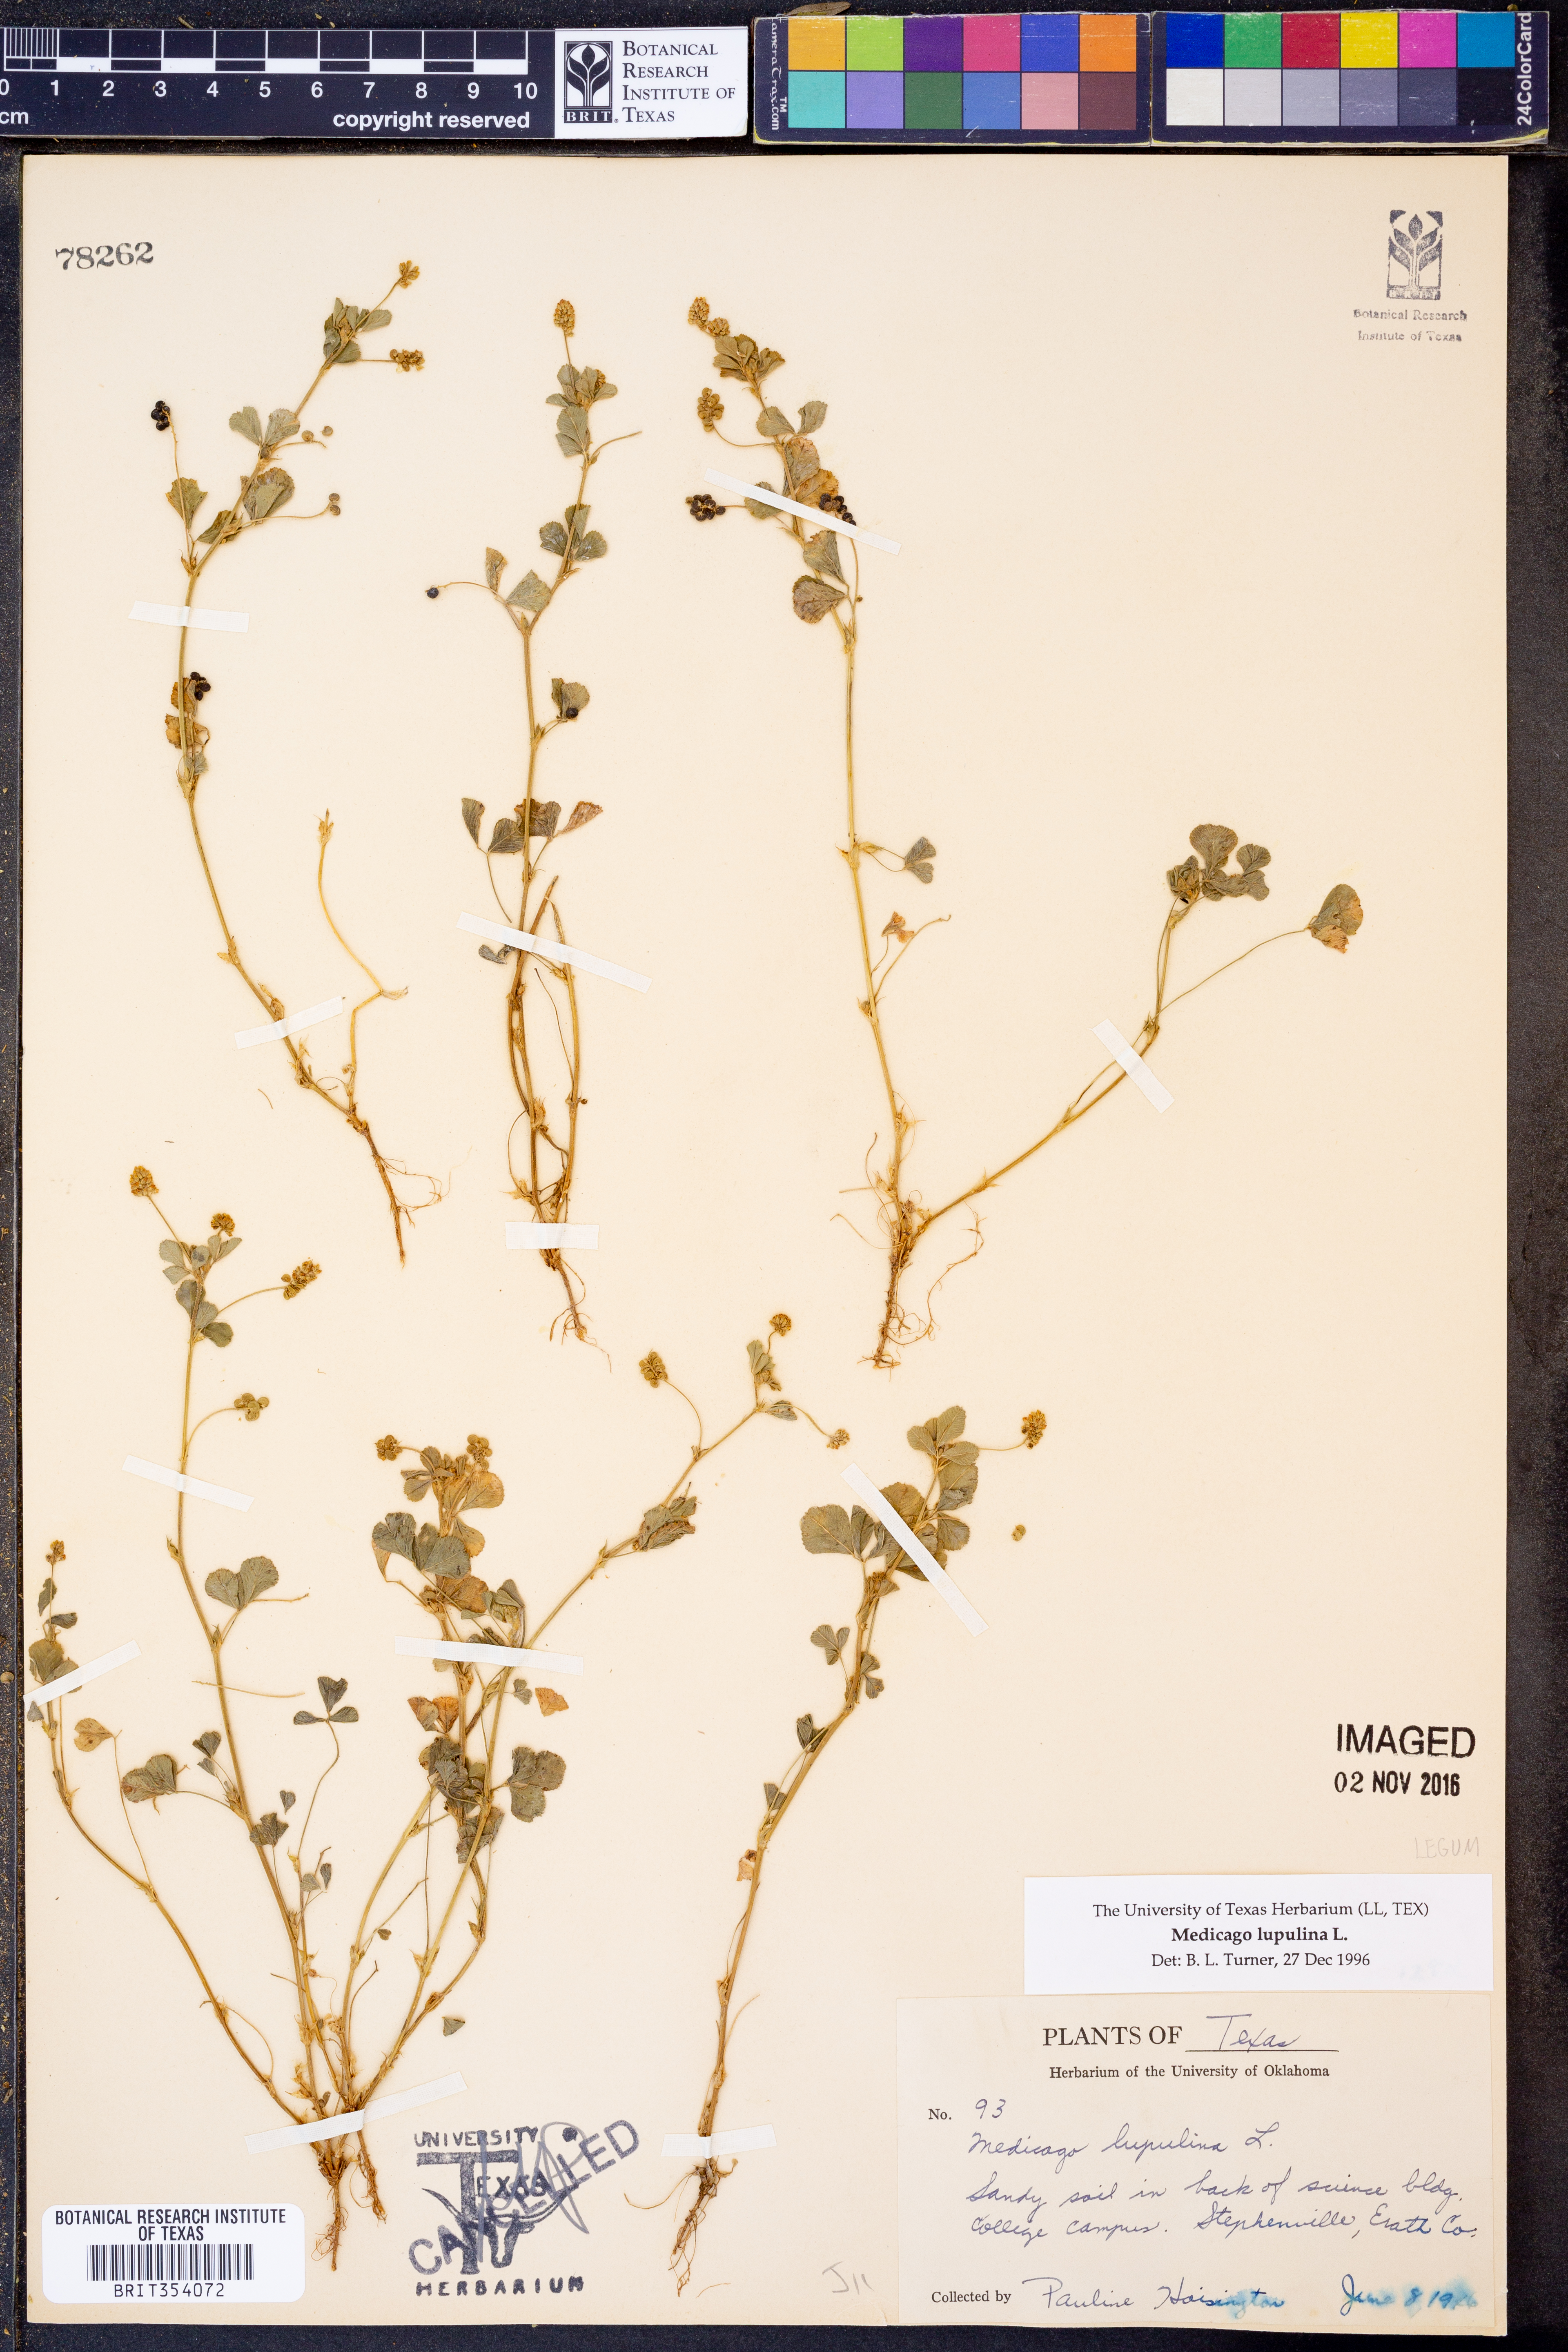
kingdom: Plantae
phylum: Tracheophyta
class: Magnoliopsida
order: Fabales
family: Fabaceae
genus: Medicago
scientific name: Medicago lupulina
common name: Black medick
